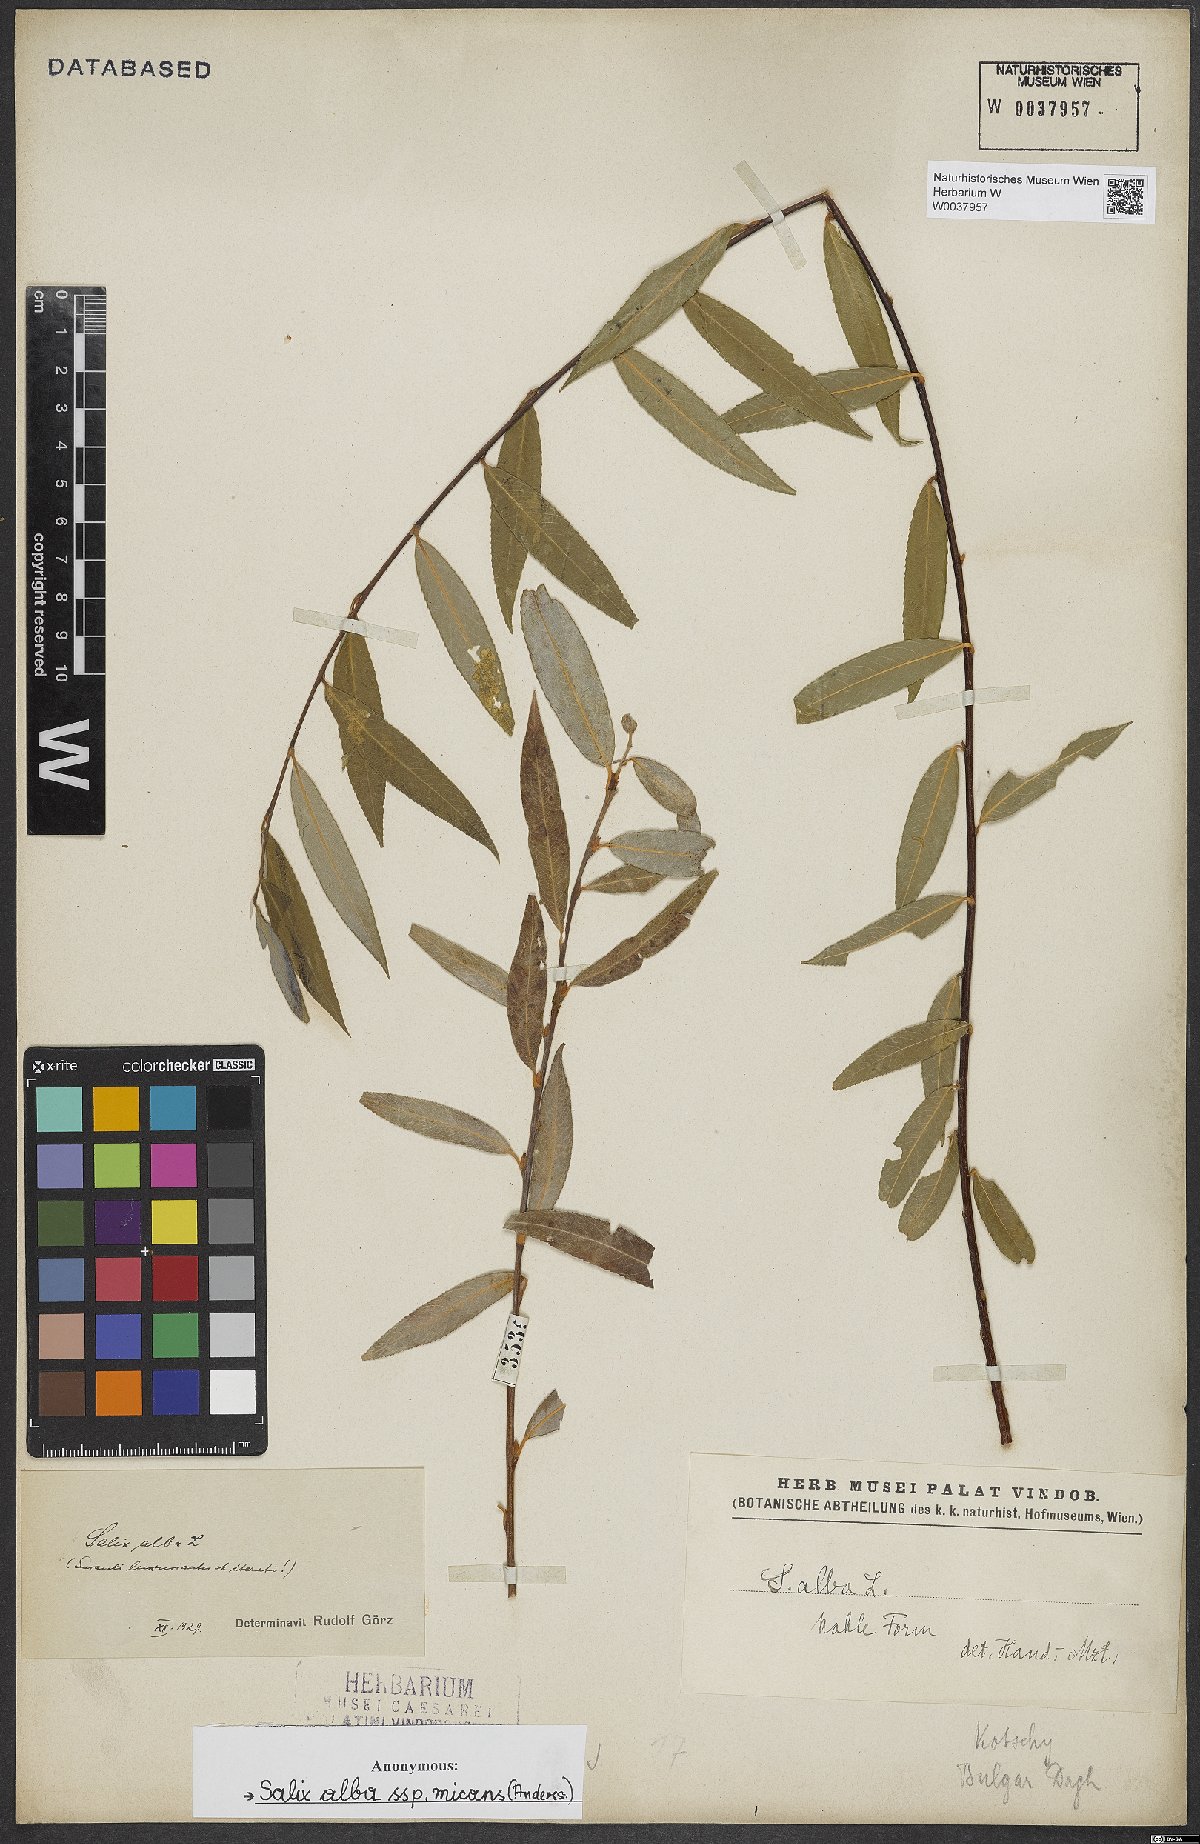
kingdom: Plantae
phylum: Tracheophyta
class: Magnoliopsida
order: Malpighiales
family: Salicaceae
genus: Salix
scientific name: Salix alba
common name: White willow
